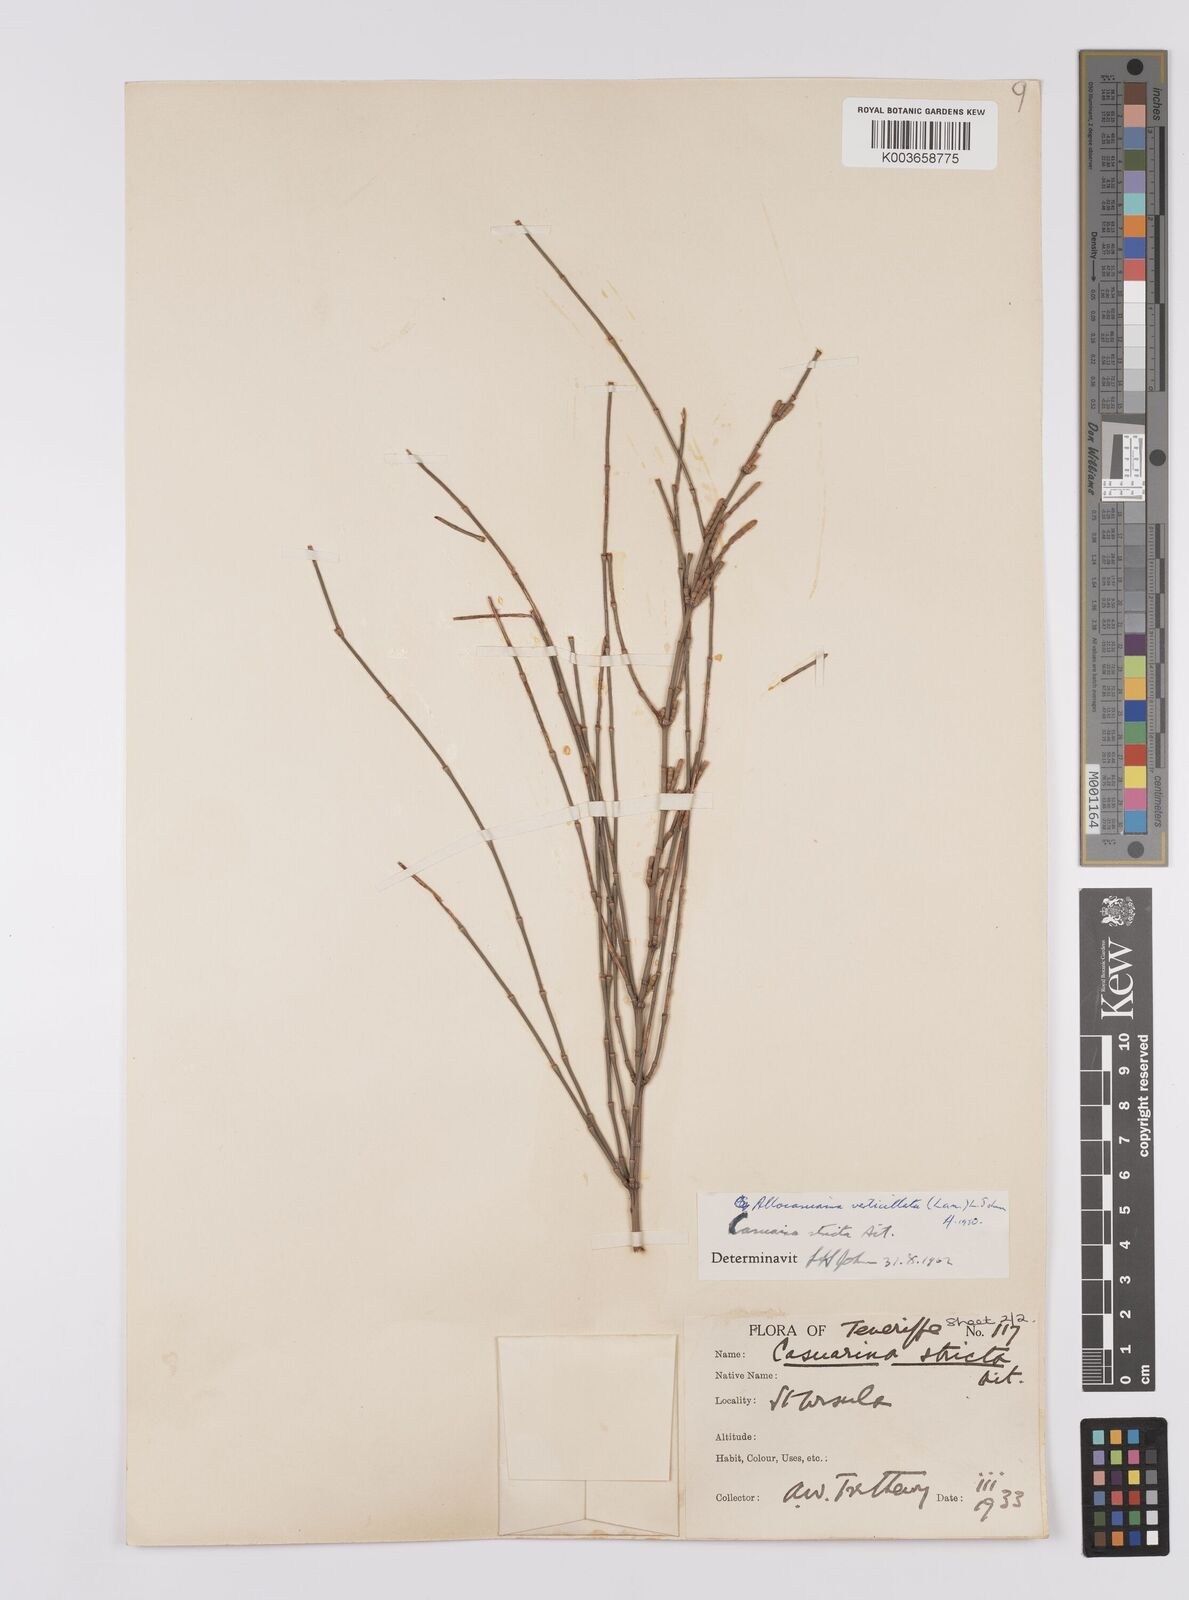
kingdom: Plantae
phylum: Tracheophyta
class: Magnoliopsida
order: Fagales
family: Casuarinaceae
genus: Allocasuarina
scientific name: Allocasuarina verticillata
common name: Drooping she-oak
